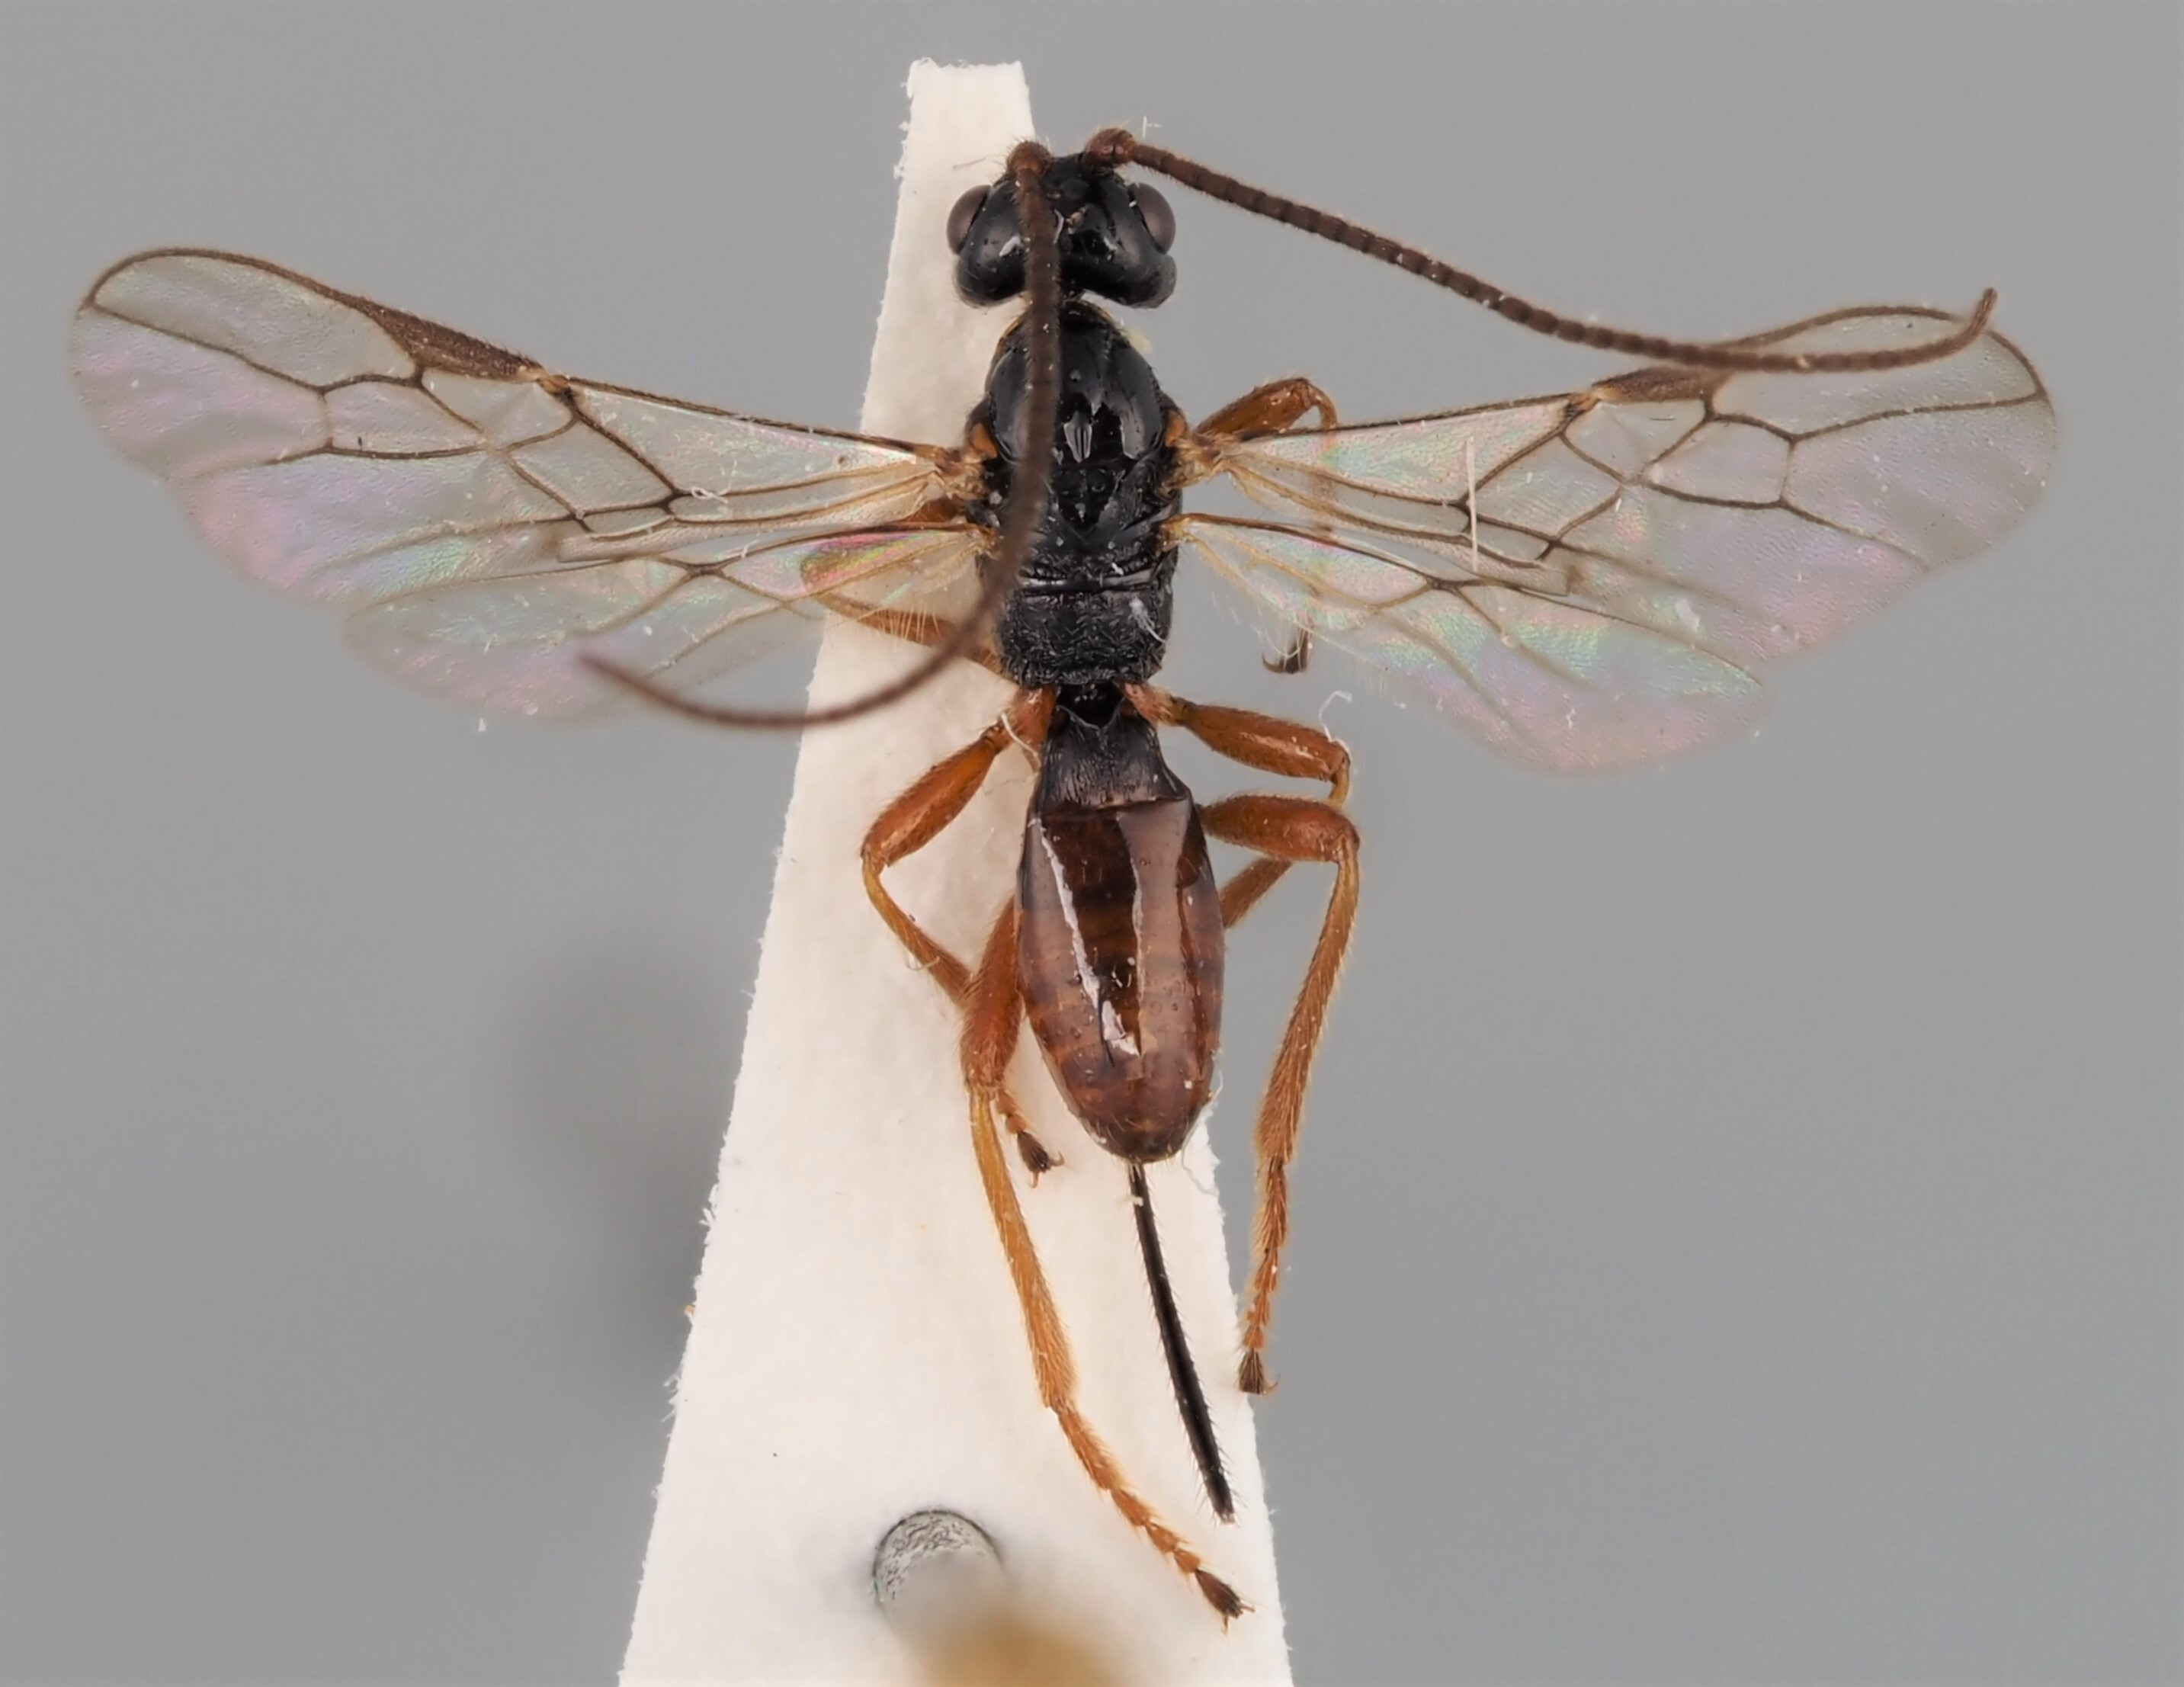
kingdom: Animalia
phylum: Arthropoda
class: Insecta
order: Hymenoptera
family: Braconidae
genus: Phaenocarpa
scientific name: Phaenocarpa notabilis
